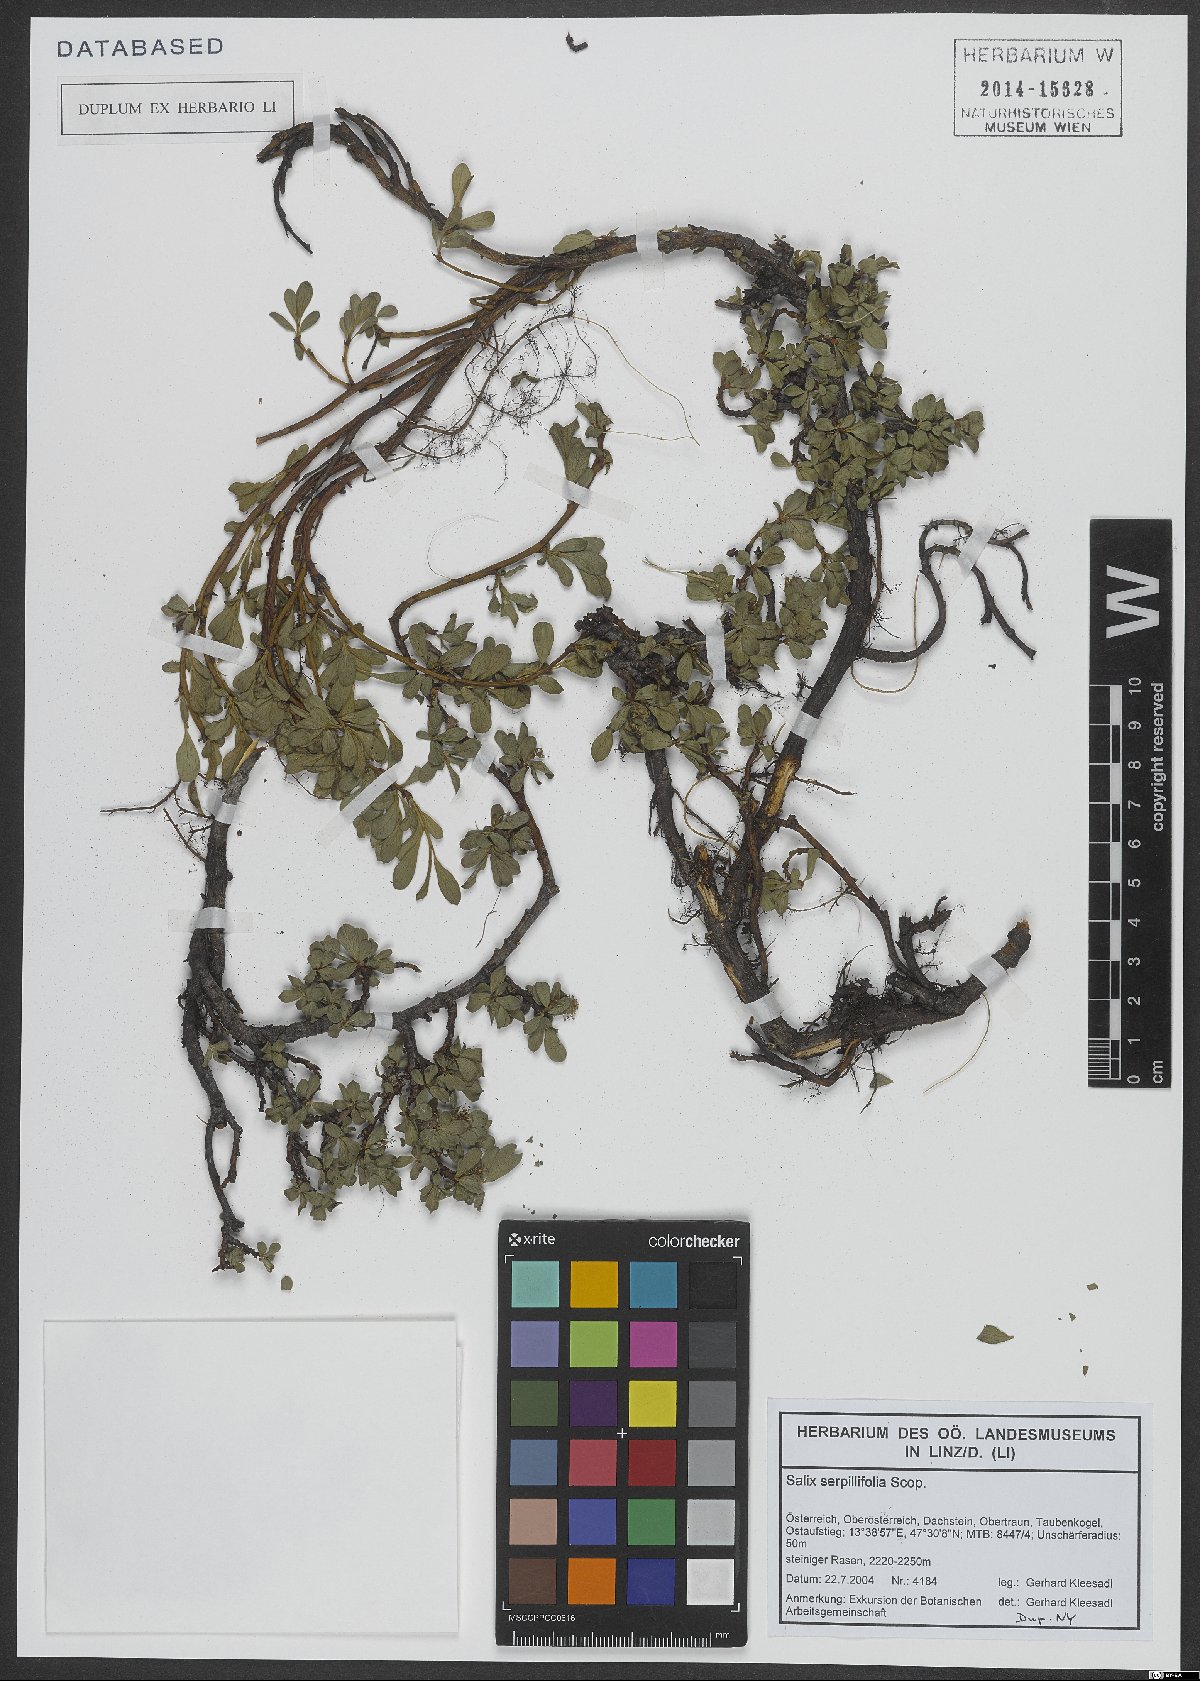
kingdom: Plantae
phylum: Tracheophyta
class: Magnoliopsida
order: Malpighiales
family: Salicaceae
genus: Salix
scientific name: Salix serpillifolia
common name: Thyme-leaf willow
